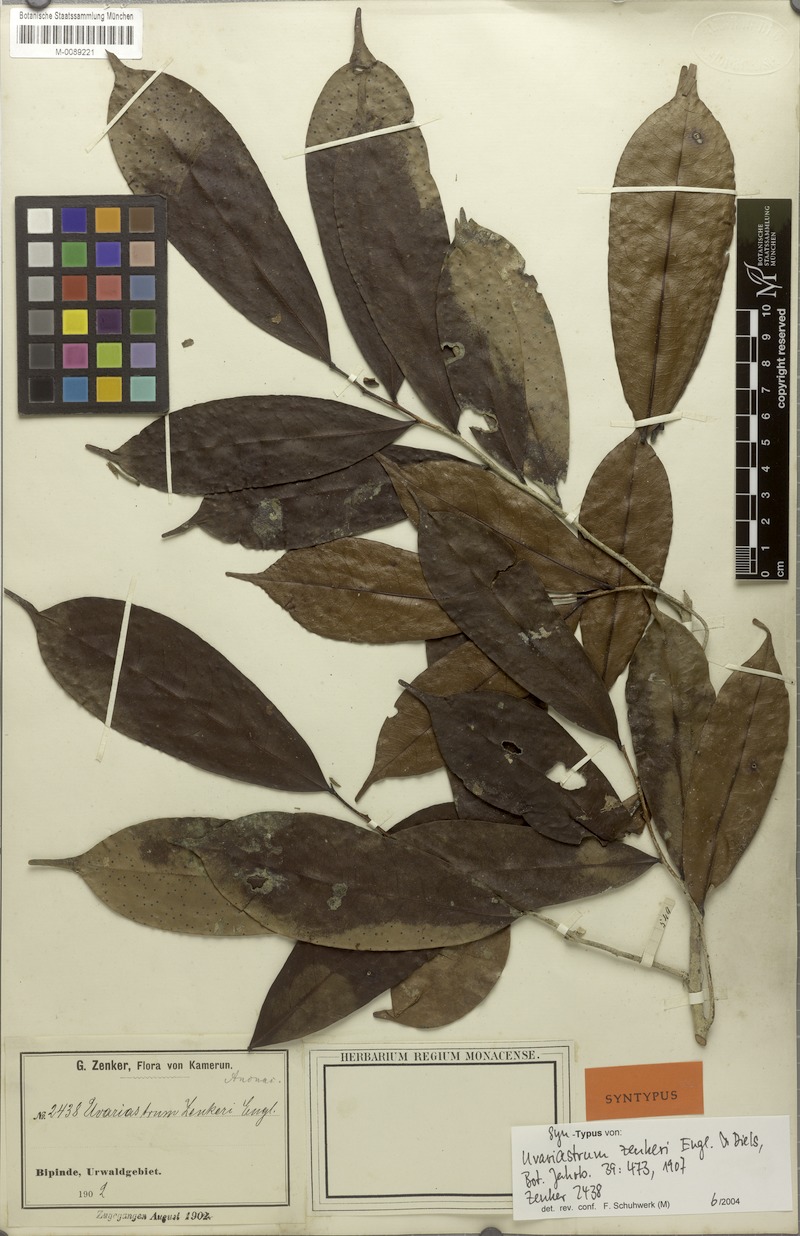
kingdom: Plantae
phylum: Tracheophyta
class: Magnoliopsida
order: Magnoliales
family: Annonaceae
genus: Uvariastrum
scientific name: Uvariastrum zenkeri
